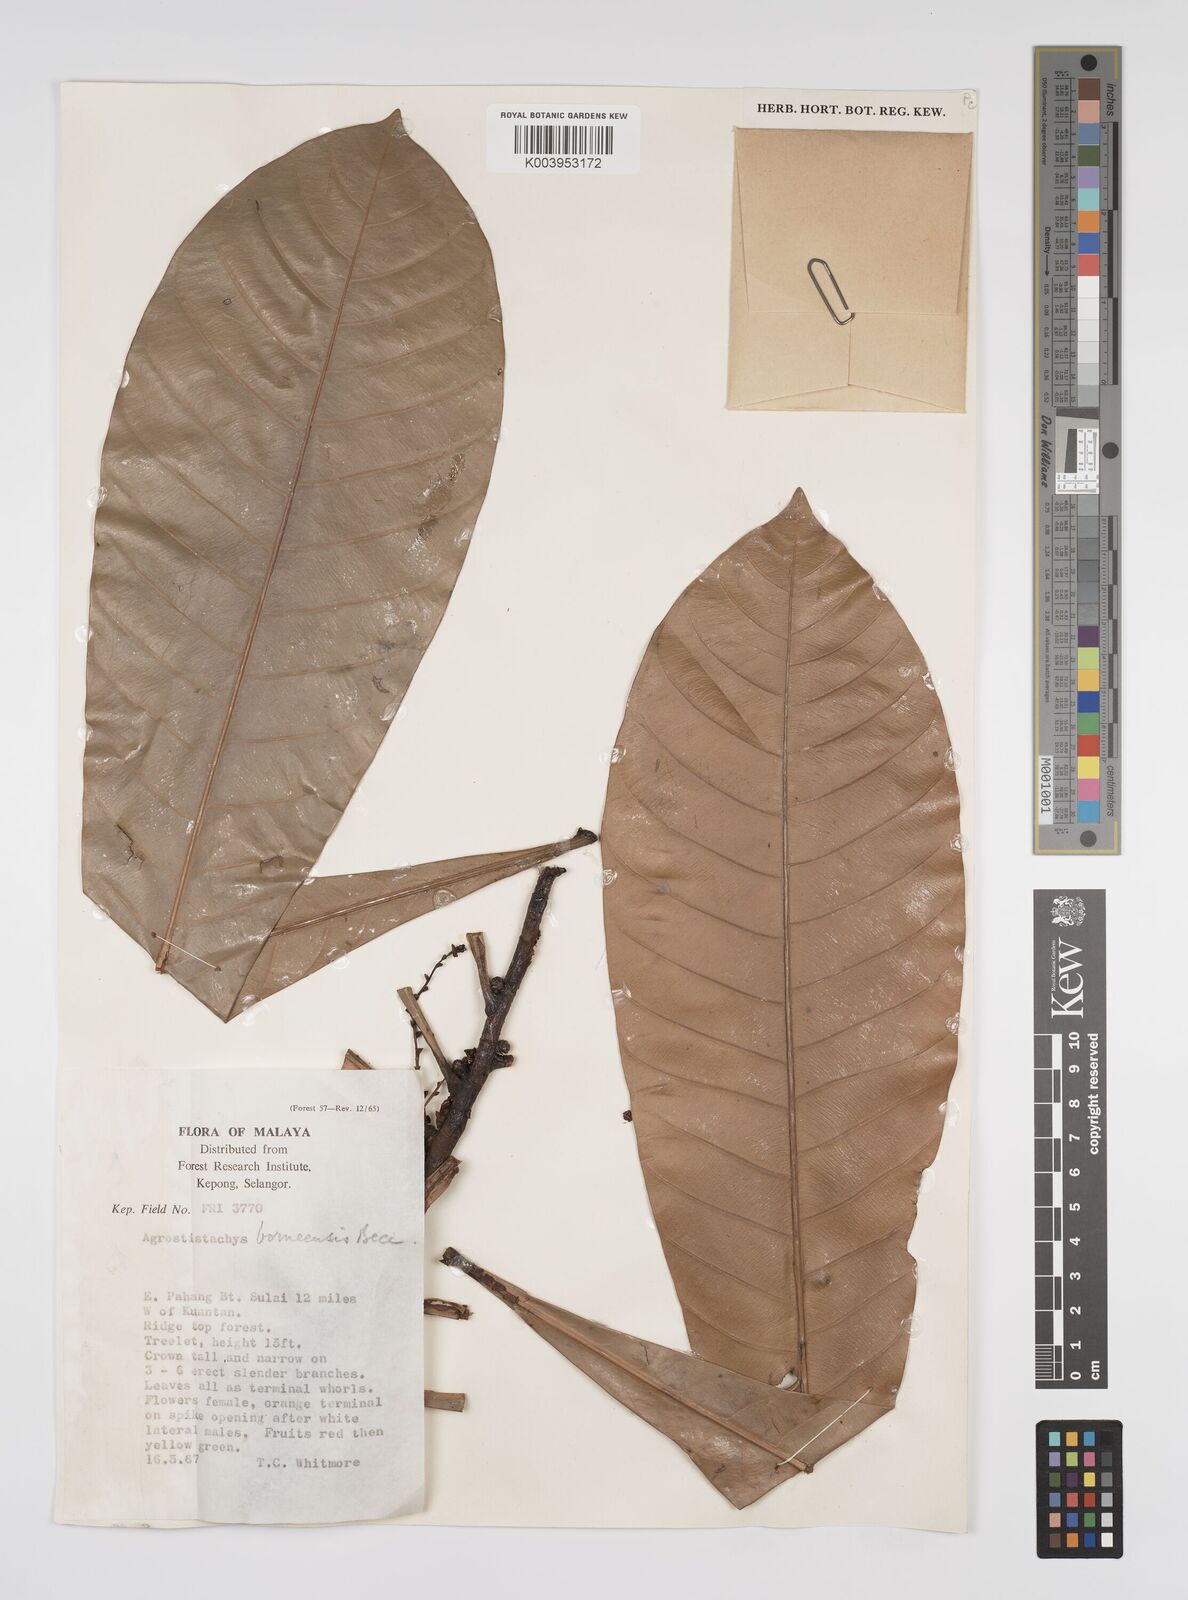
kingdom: Plantae
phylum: Tracheophyta
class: Magnoliopsida
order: Malpighiales
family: Euphorbiaceae
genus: Agrostistachys
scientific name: Agrostistachys borneensis
